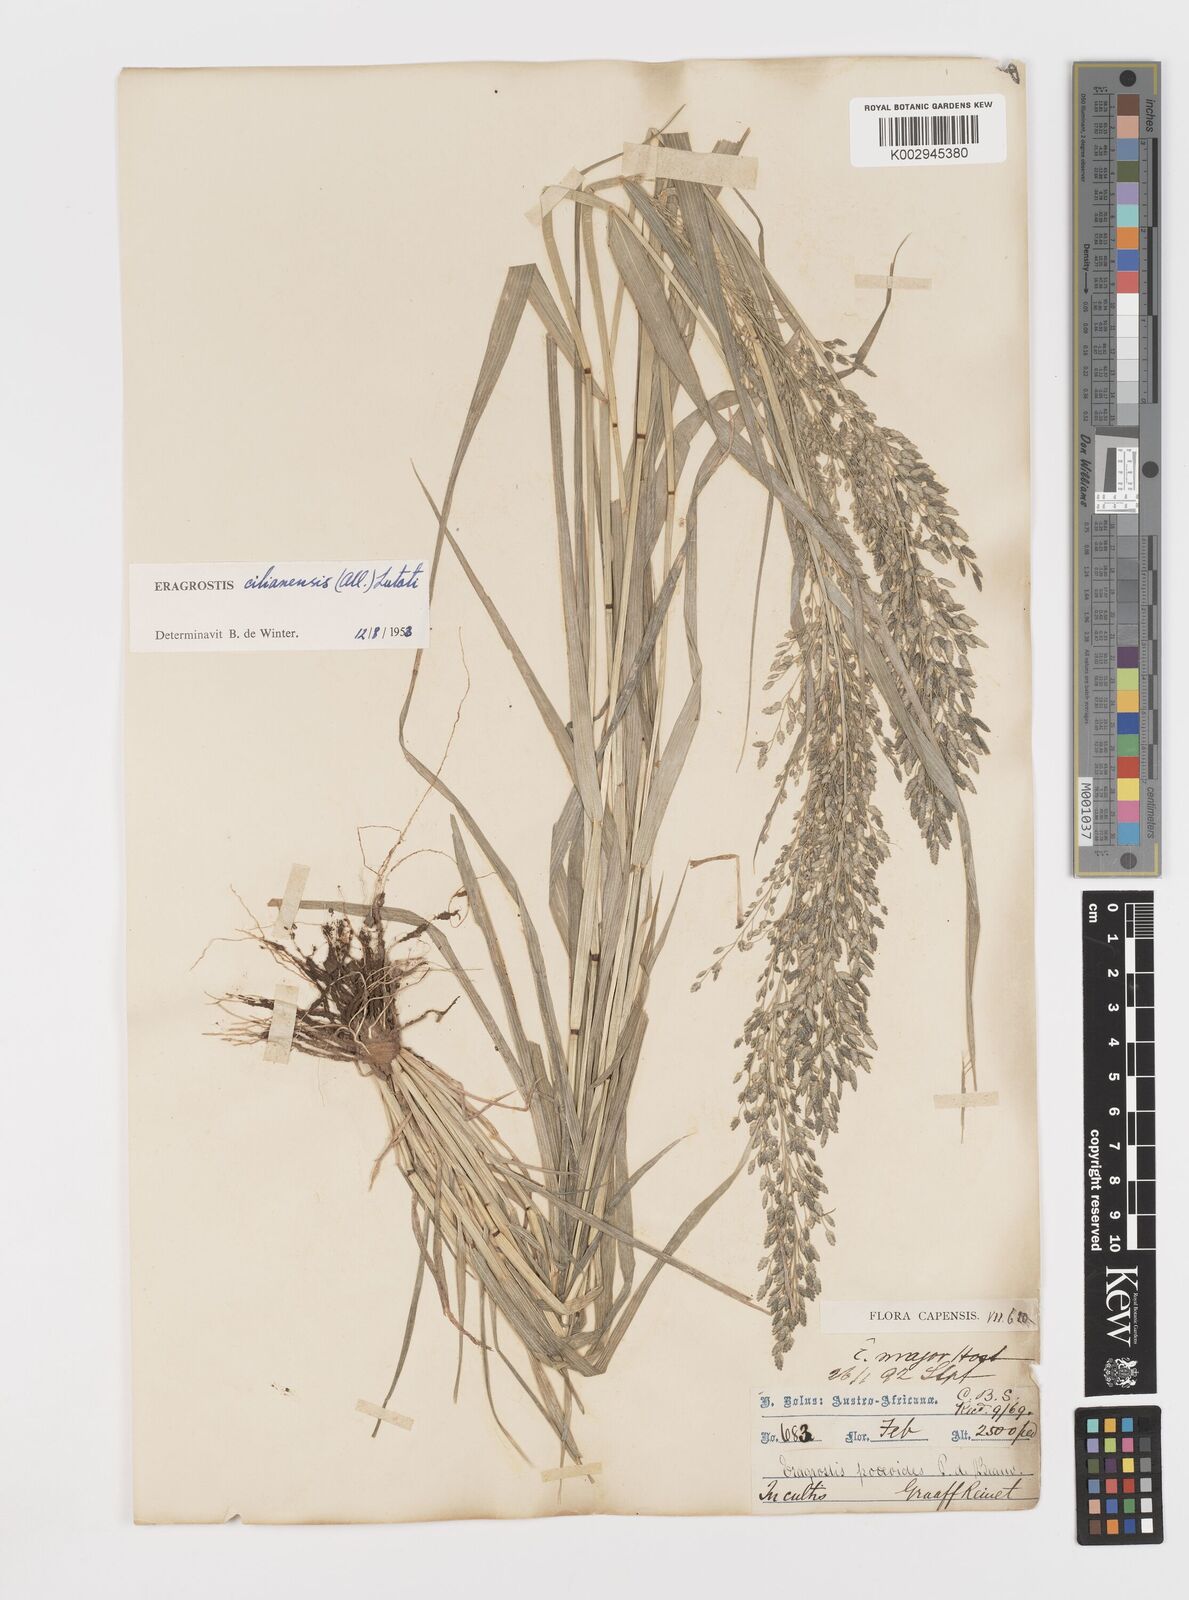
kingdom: Plantae
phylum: Tracheophyta
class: Liliopsida
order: Poales
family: Poaceae
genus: Eragrostis
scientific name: Eragrostis cilianensis
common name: Stinkgrass
